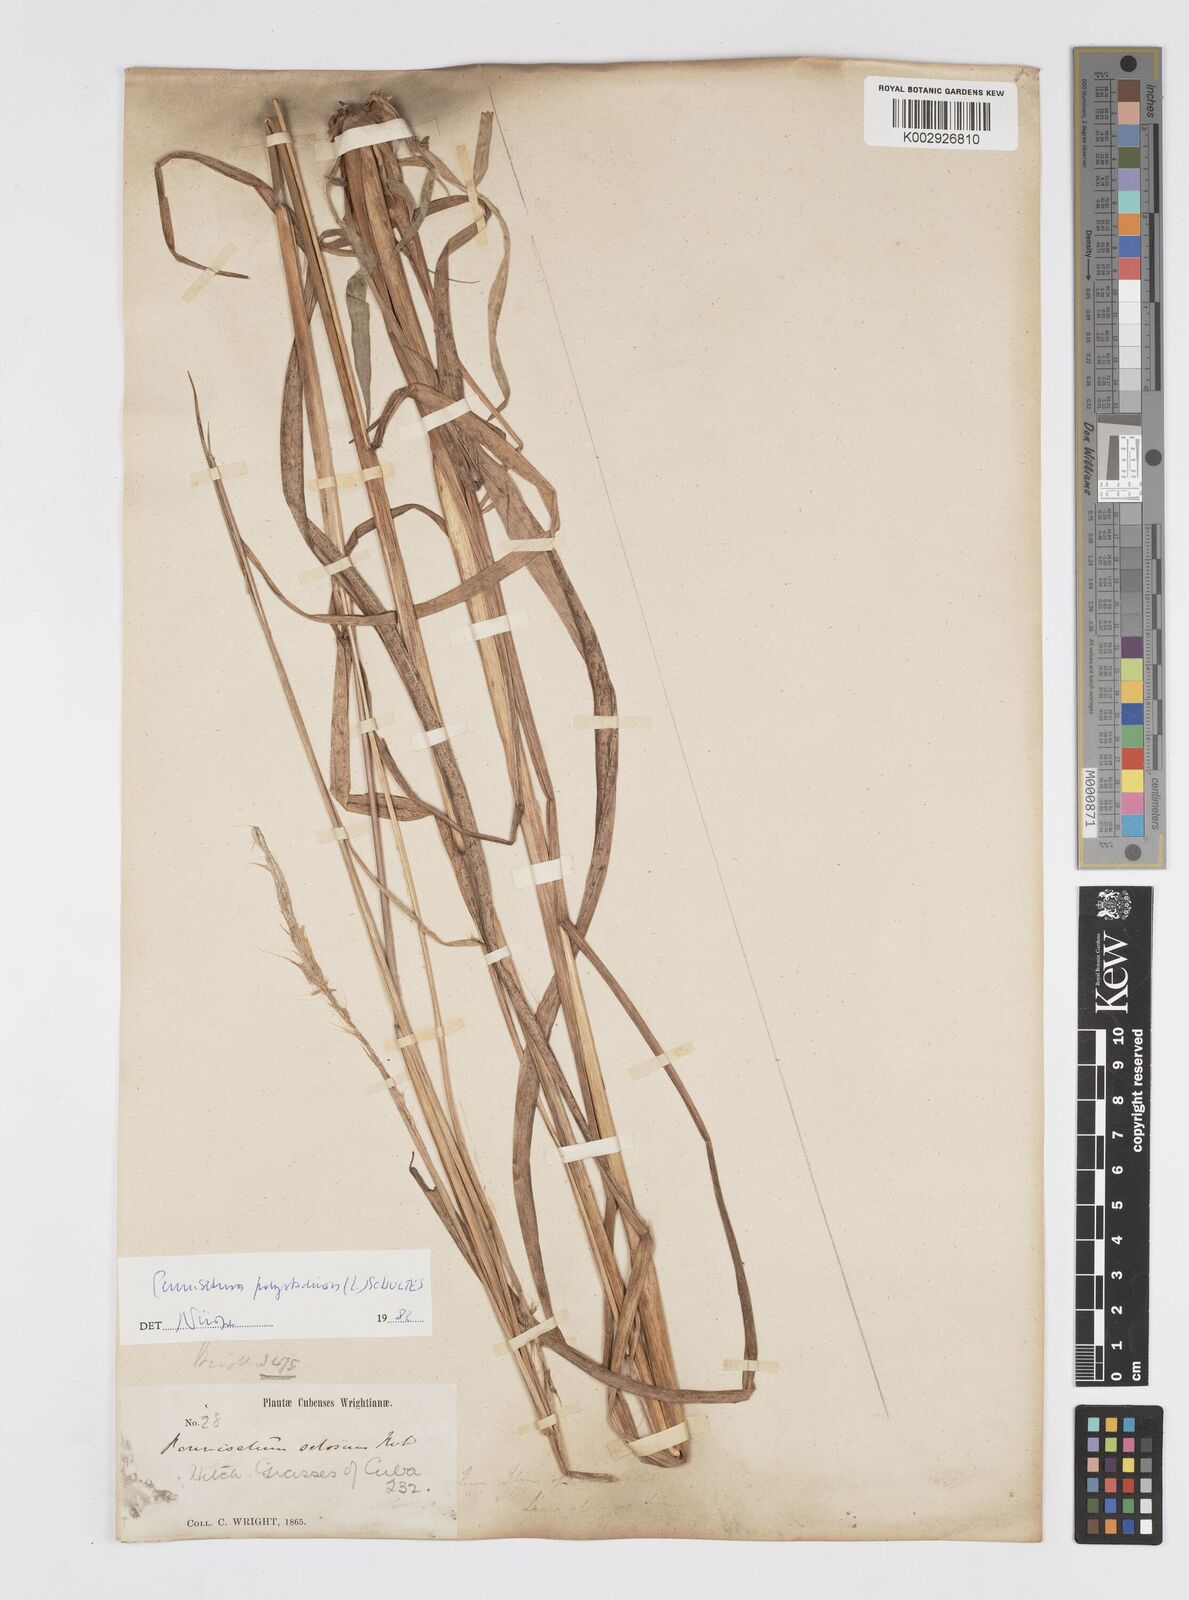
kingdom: Plantae
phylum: Tracheophyta
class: Liliopsida
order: Poales
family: Poaceae
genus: Setaria
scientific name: Setaria parviflora
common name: Knotroot bristle-grass
